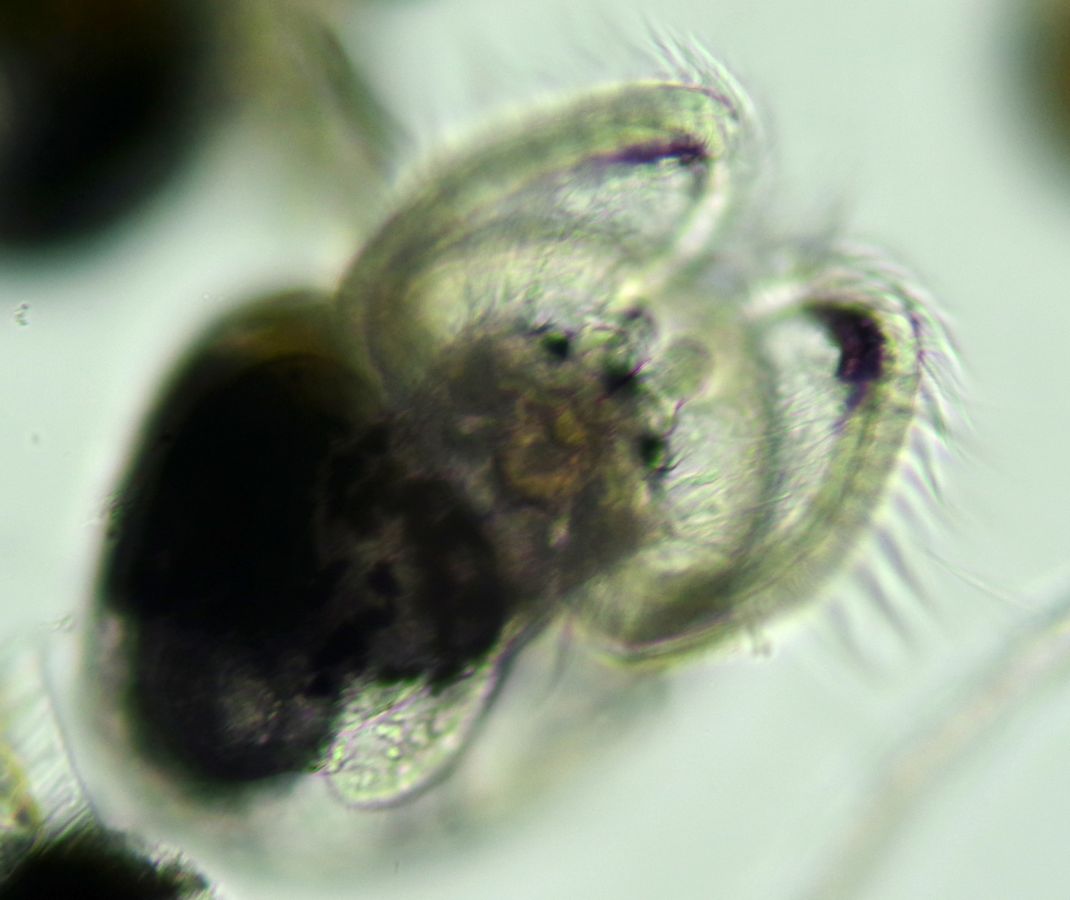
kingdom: Animalia
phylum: Mollusca
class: Gastropoda
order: Littorinimorpha
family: Littorinidae
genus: Littorina
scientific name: Littorina littorea
